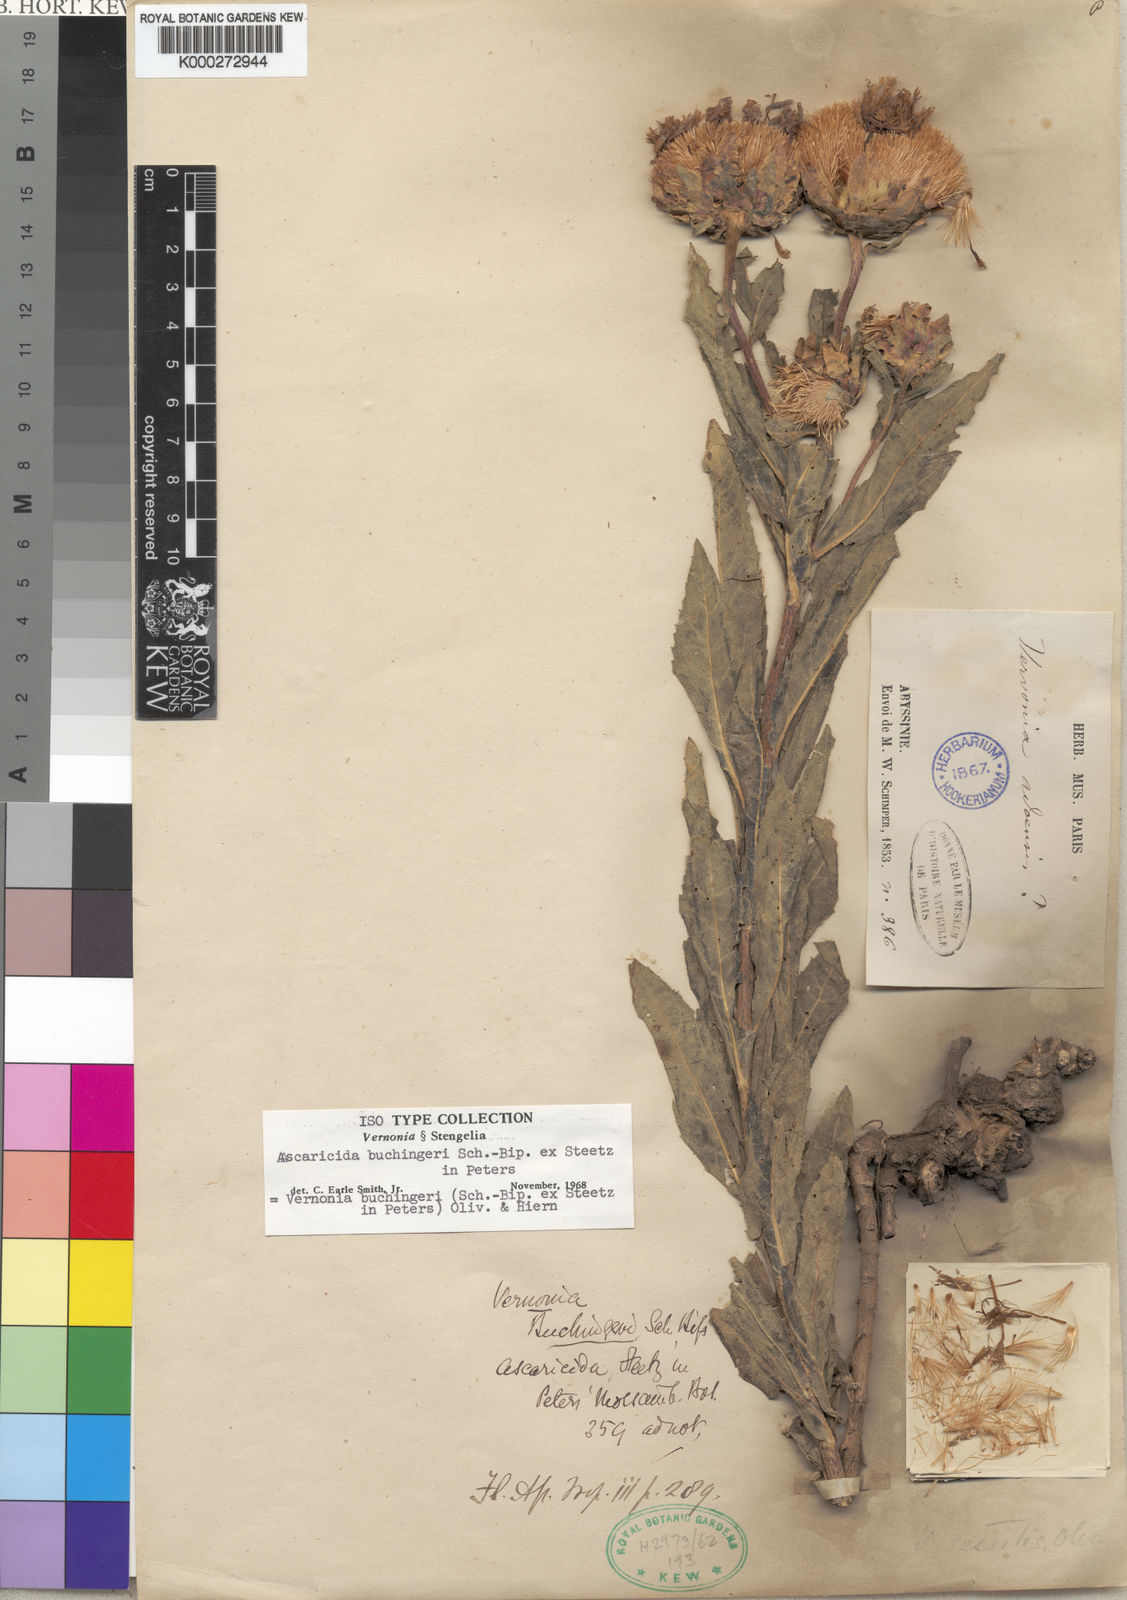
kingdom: Plantae
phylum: Tracheophyta
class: Magnoliopsida
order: Asterales
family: Asteraceae
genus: Vernonia
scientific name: Vernonia buchingeri
